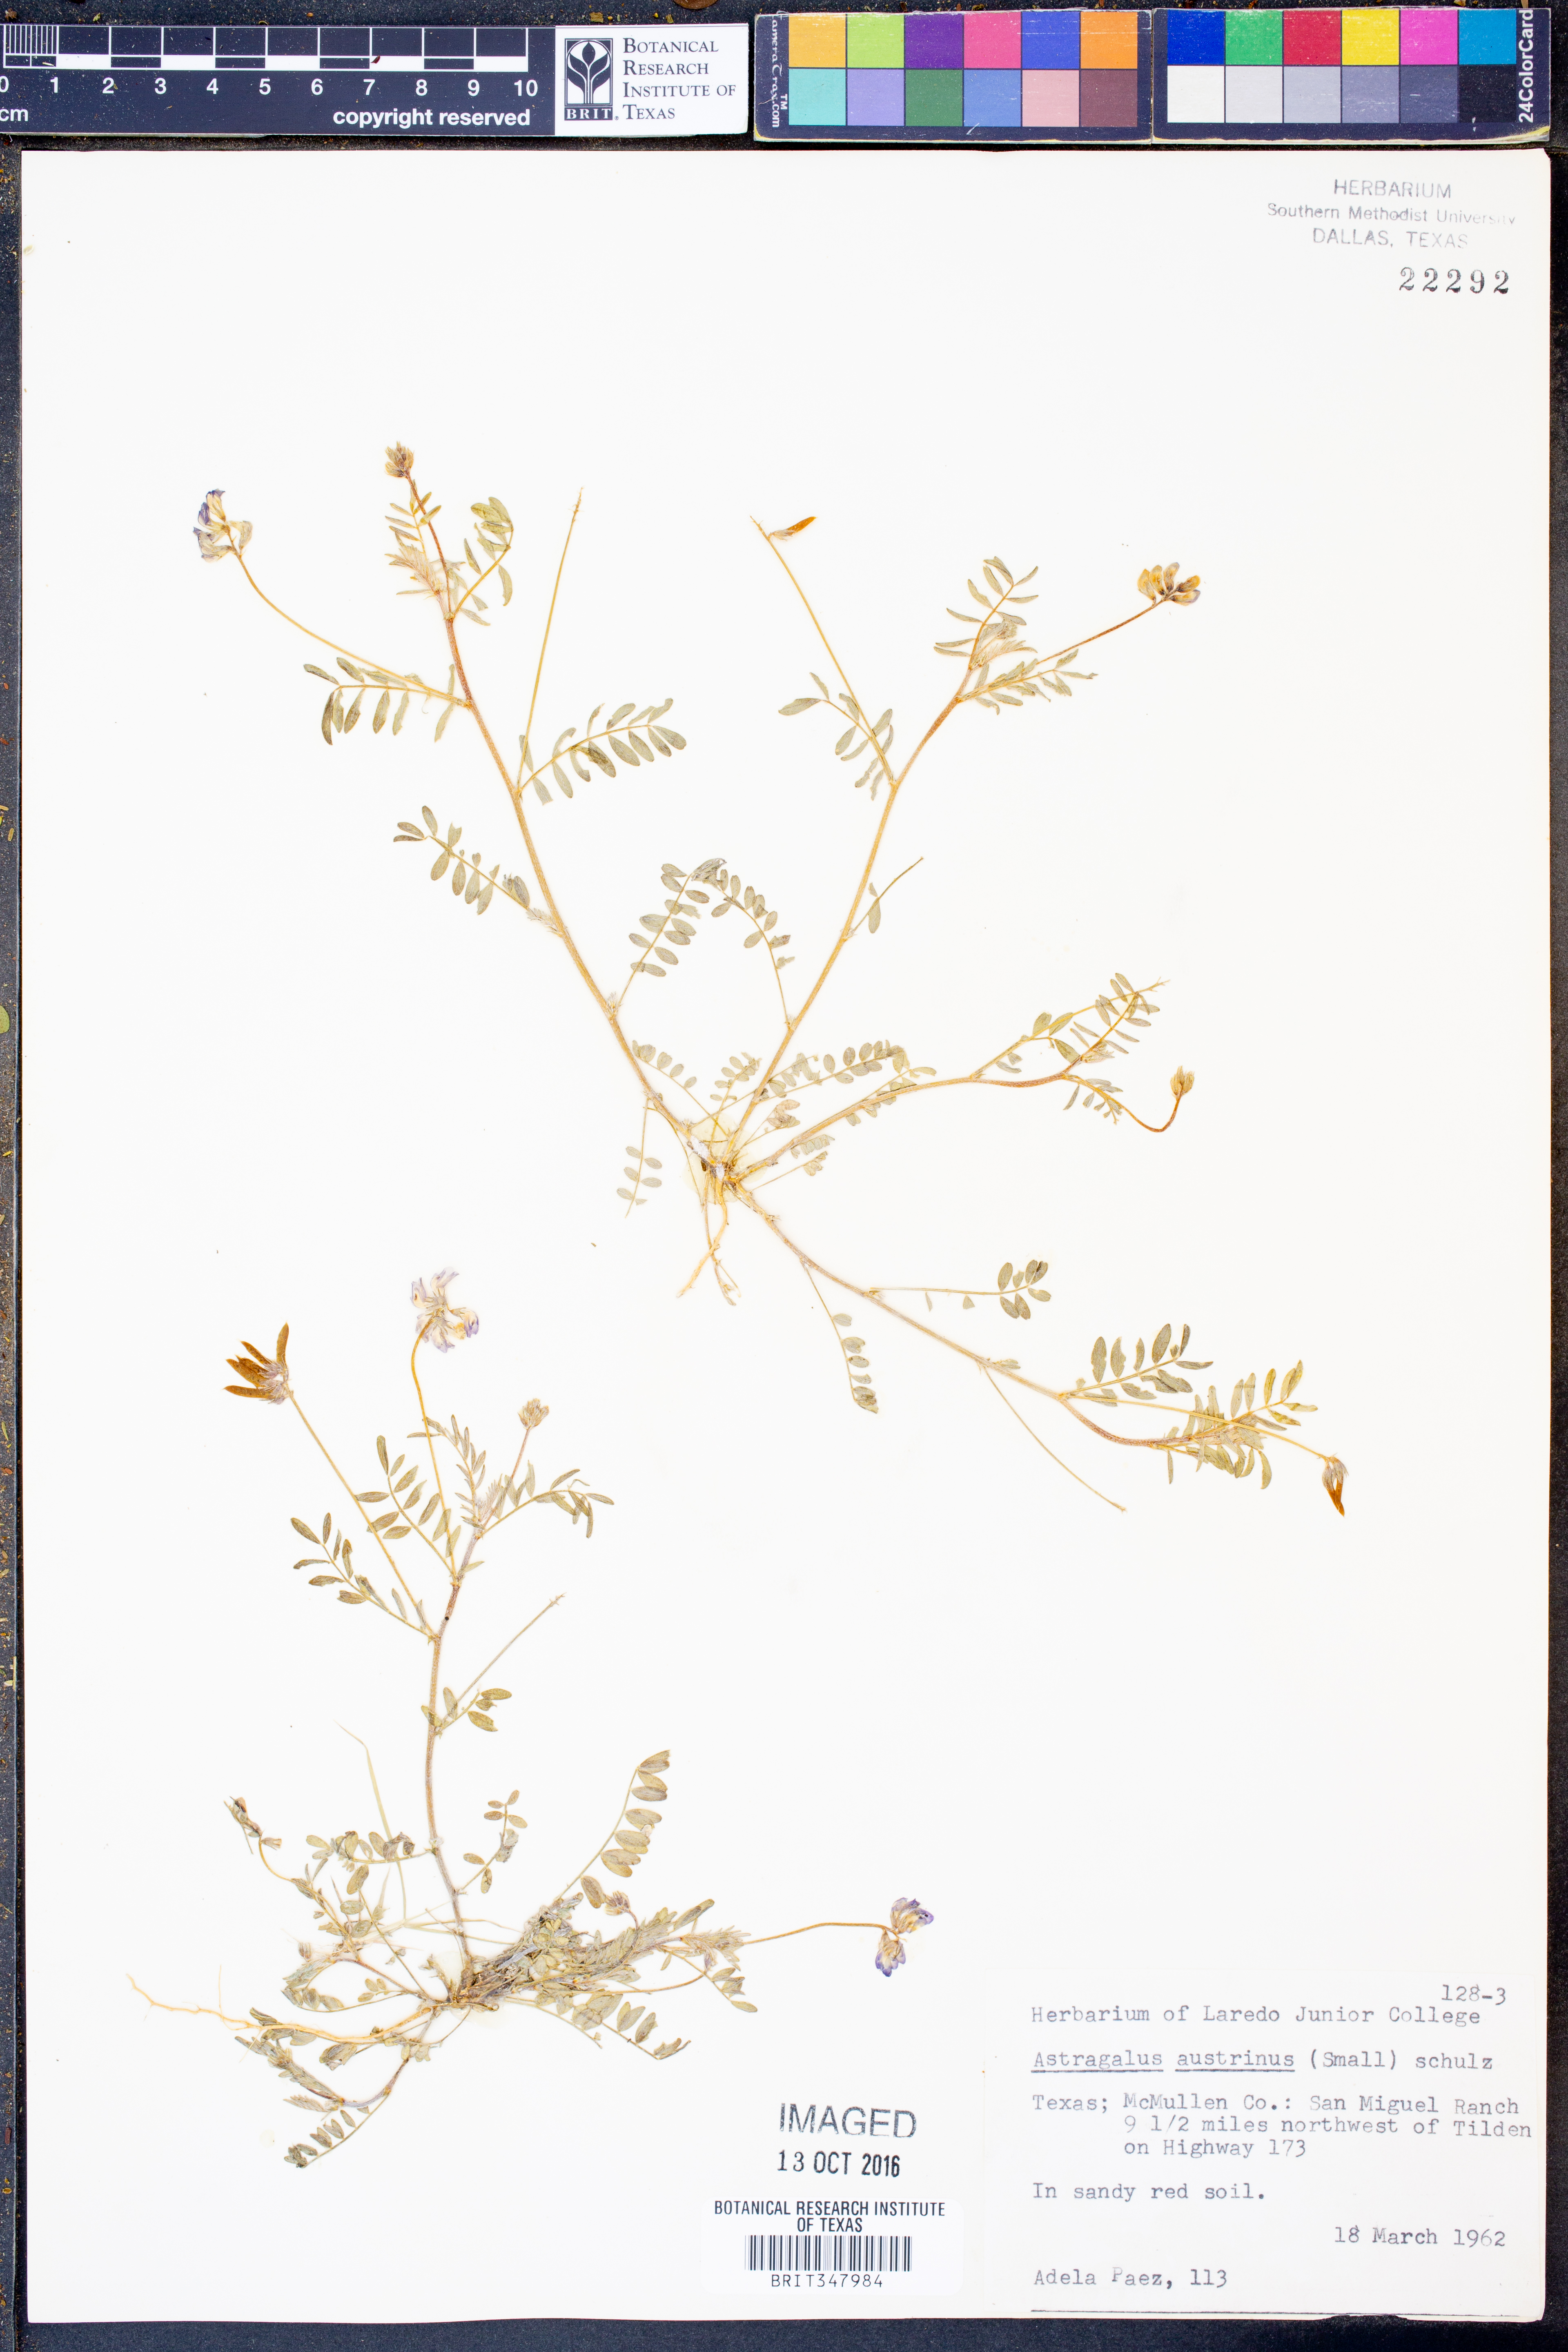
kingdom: Plantae
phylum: Tracheophyta
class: Magnoliopsida
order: Fabales
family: Fabaceae
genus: Astragalus
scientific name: Astragalus nuttallianus
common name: Smallflowered milkvetch
